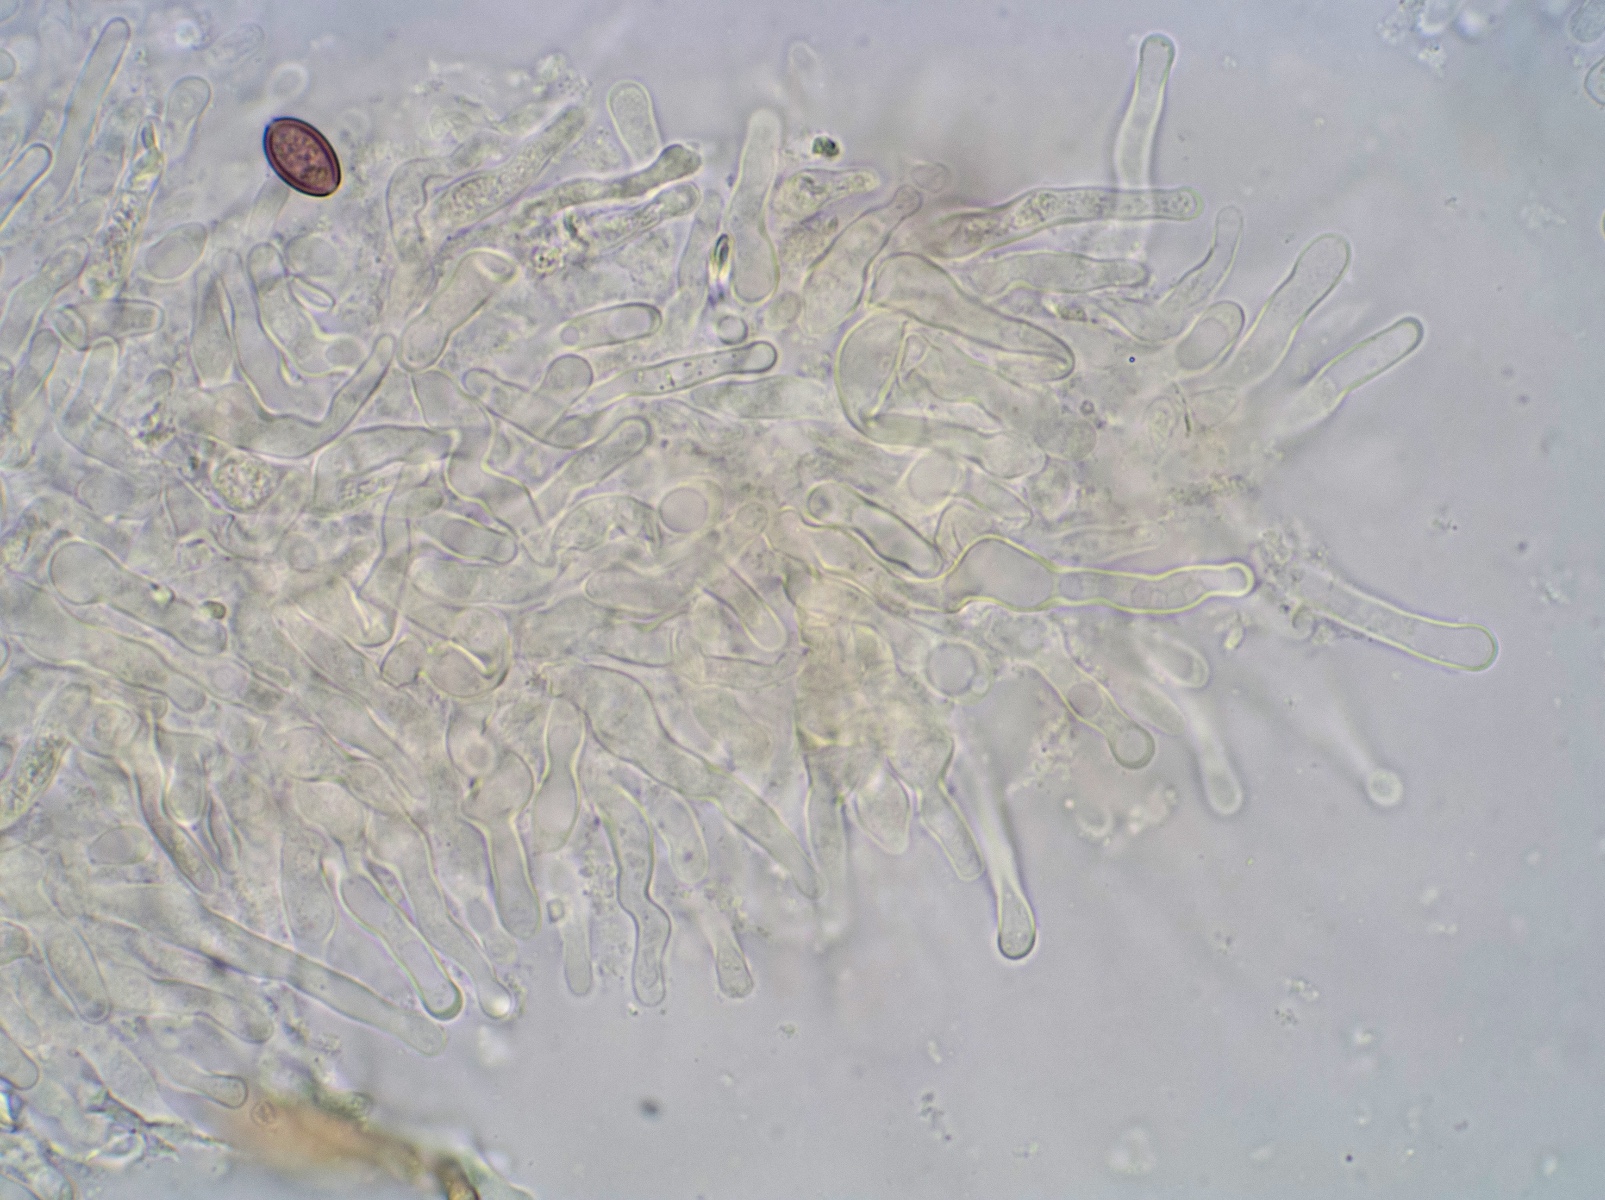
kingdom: Fungi
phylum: Basidiomycota
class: Agaricomycetes
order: Agaricales
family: Strophariaceae
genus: Hypholoma
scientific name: Hypholoma ericaeoides
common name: sump-svovlhat
